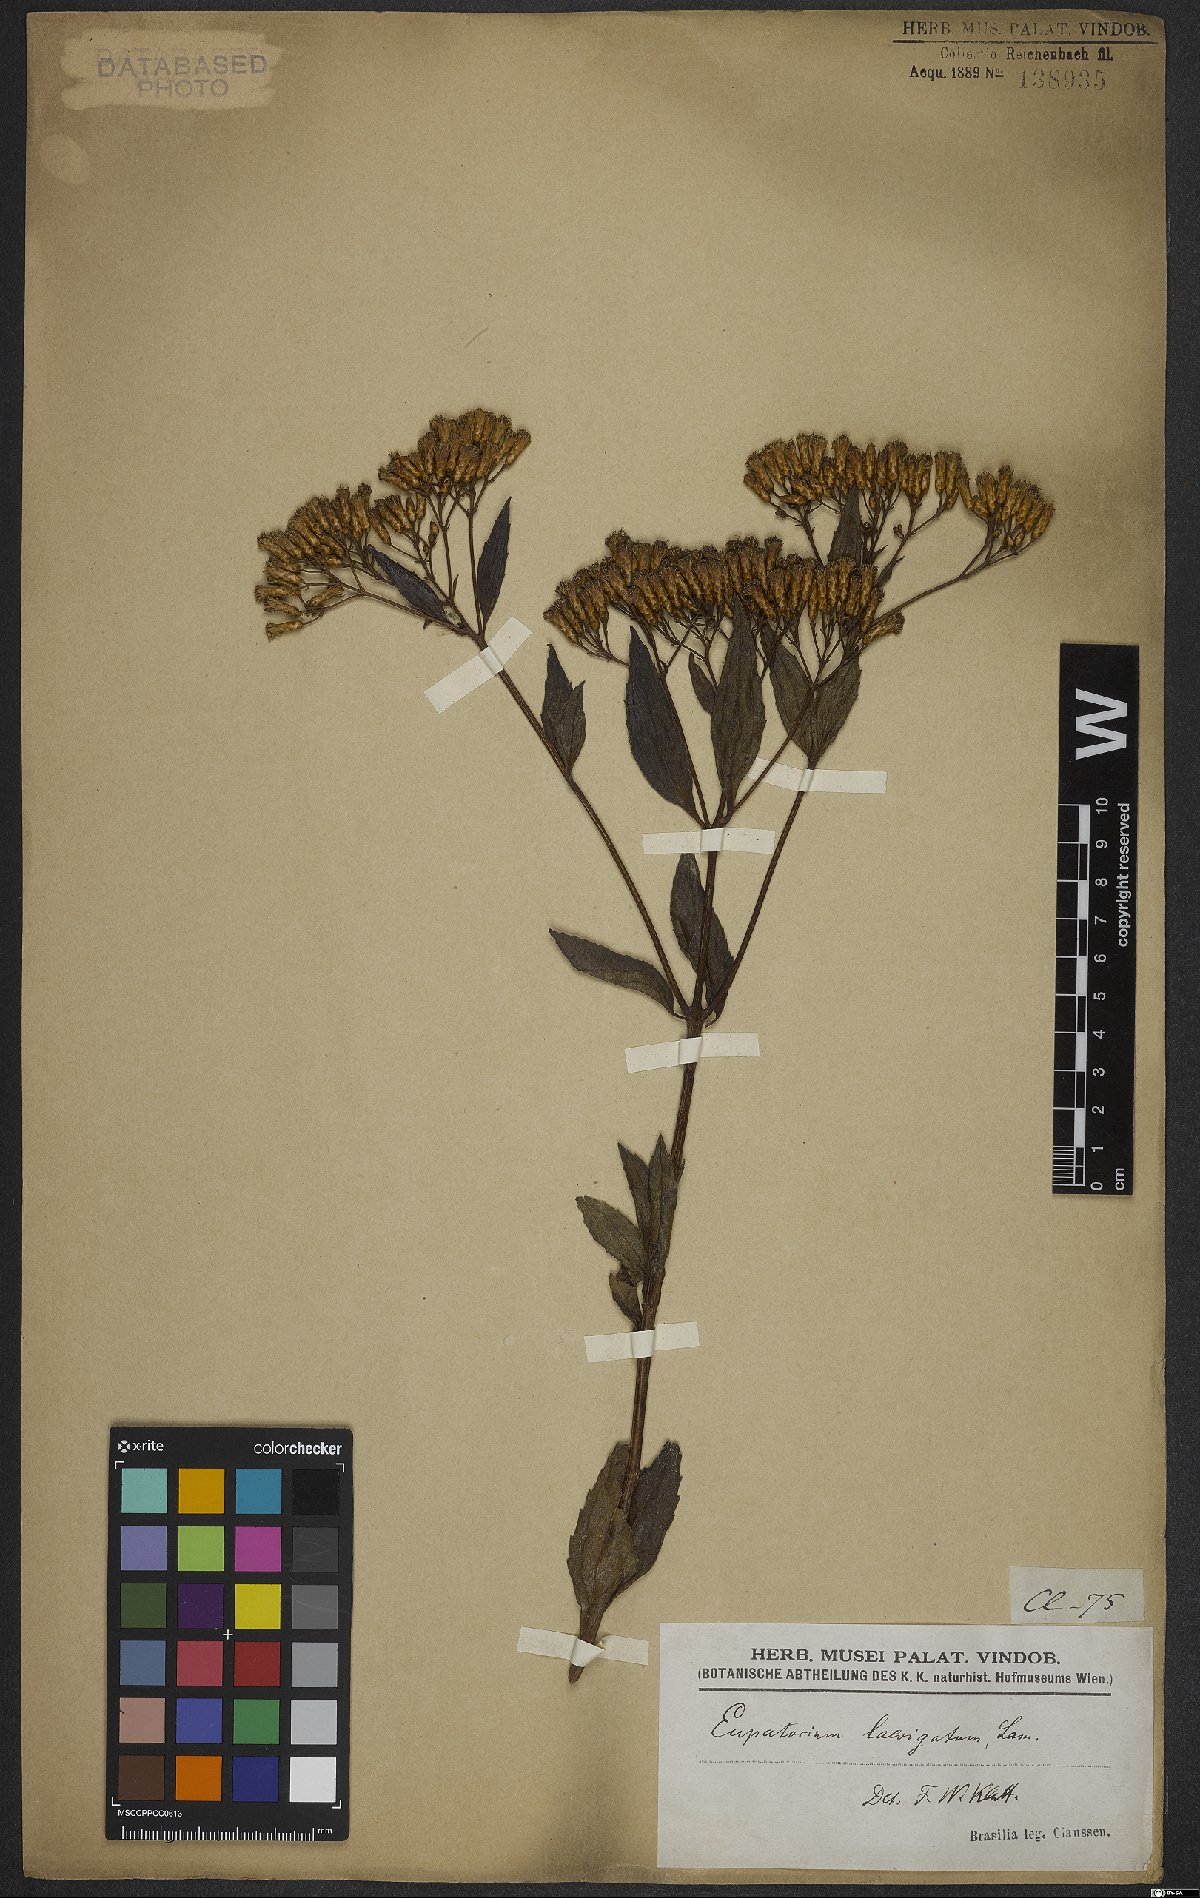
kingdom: Plantae
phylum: Tracheophyta
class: Magnoliopsida
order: Asterales
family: Asteraceae
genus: Eupatorium
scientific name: Eupatorium laevigatum
